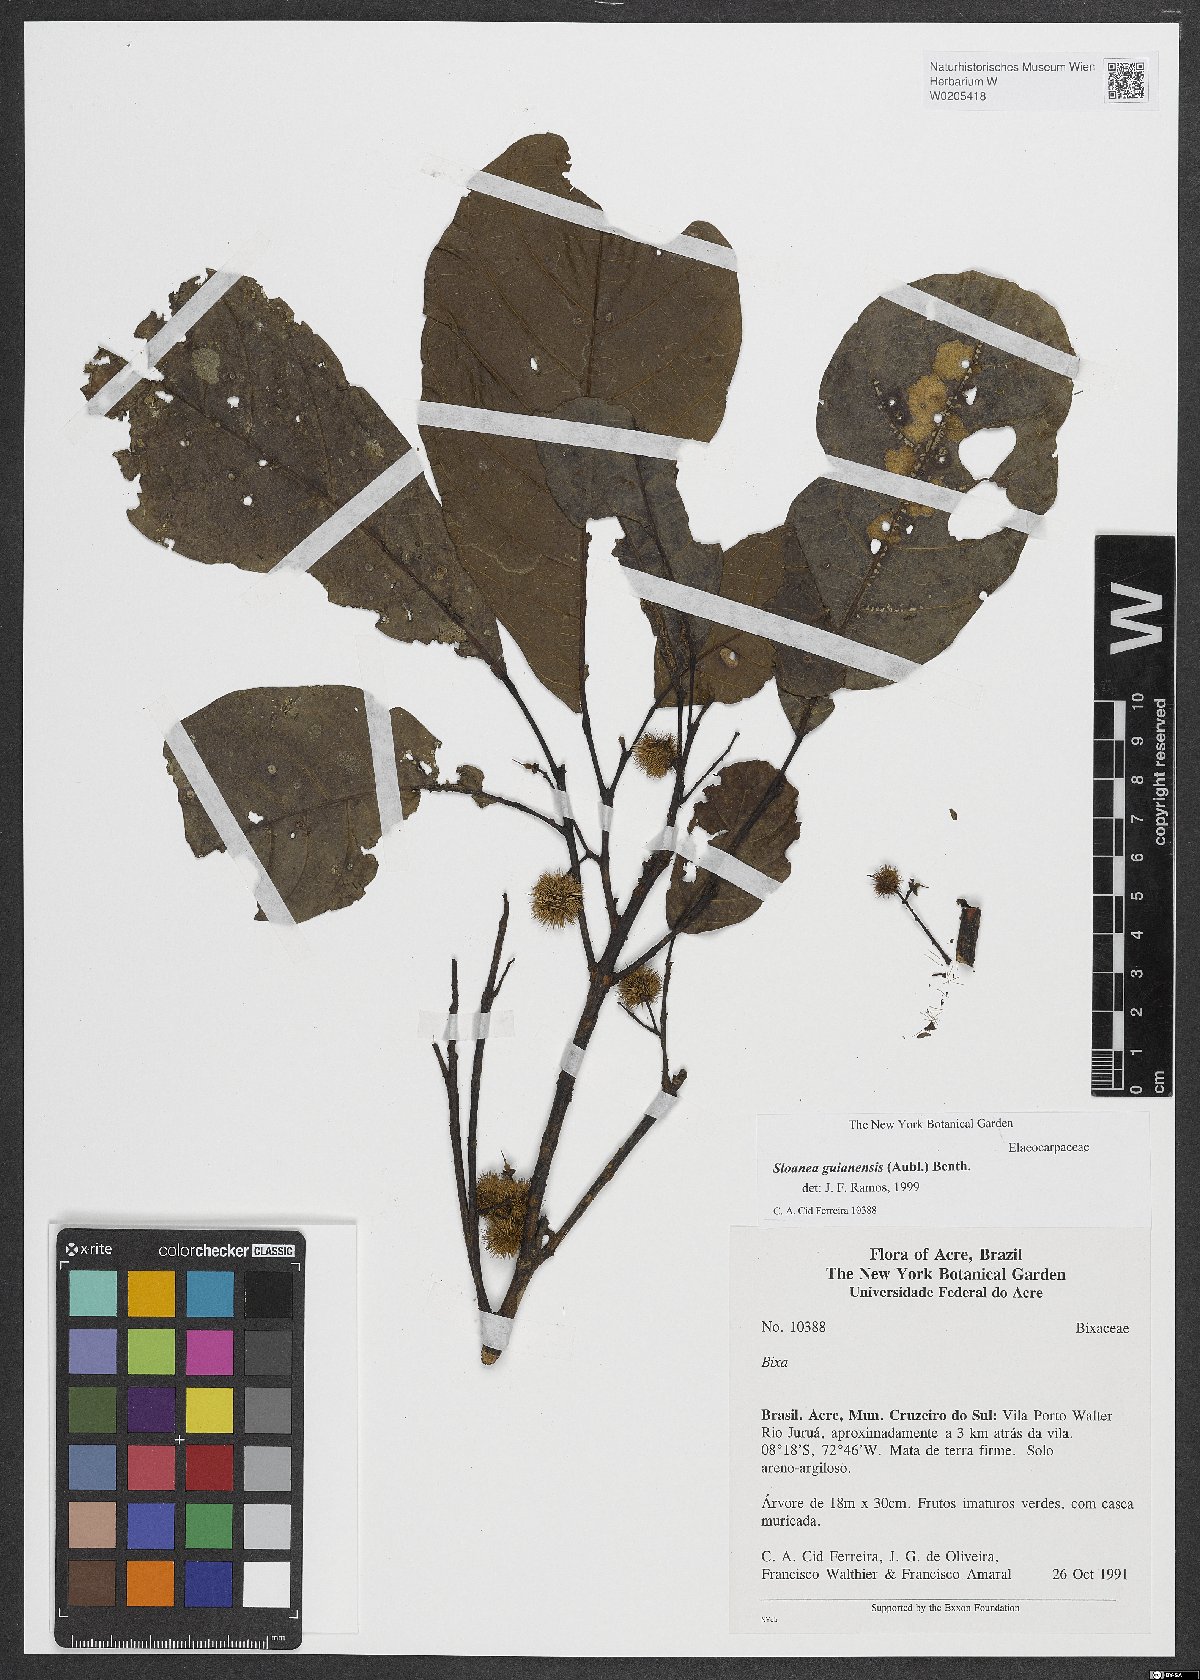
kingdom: Plantae
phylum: Tracheophyta
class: Magnoliopsida
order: Oxalidales
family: Elaeocarpaceae
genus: Sloanea
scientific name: Sloanea guianensis
